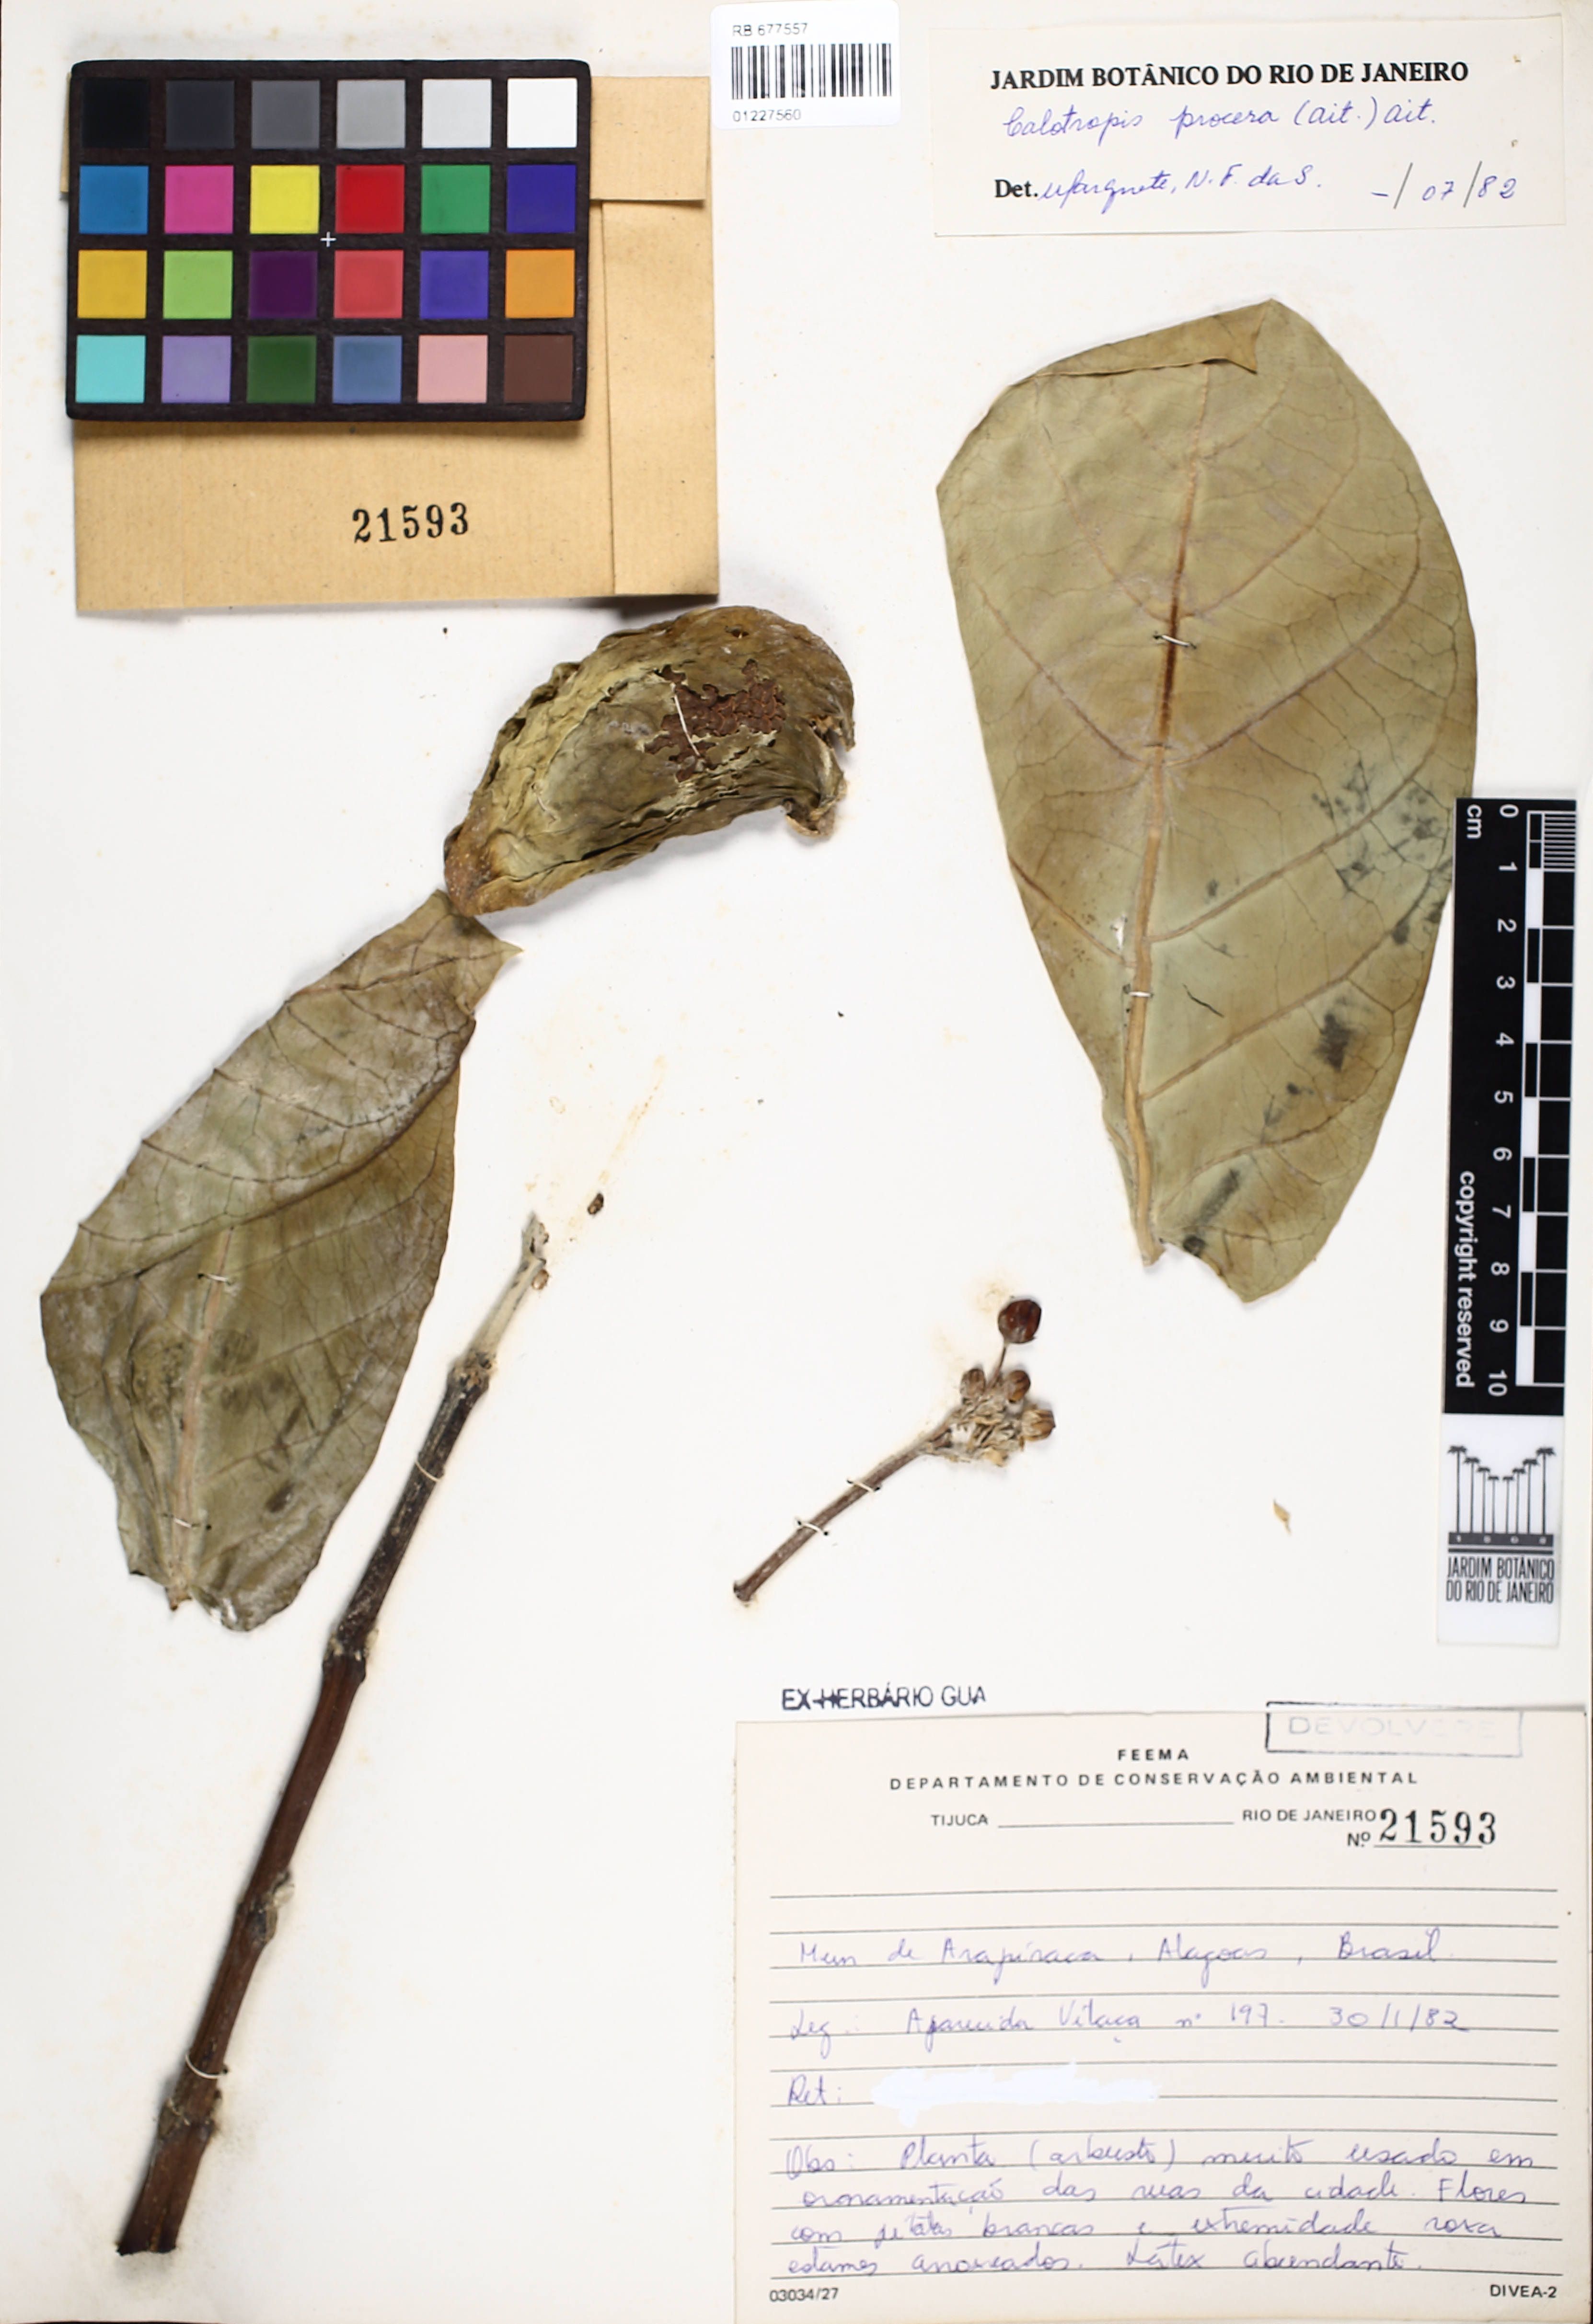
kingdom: Plantae
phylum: Tracheophyta
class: Magnoliopsida
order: Gentianales
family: Apocynaceae
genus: Calotropis
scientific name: Calotropis procera
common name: Roostertree
